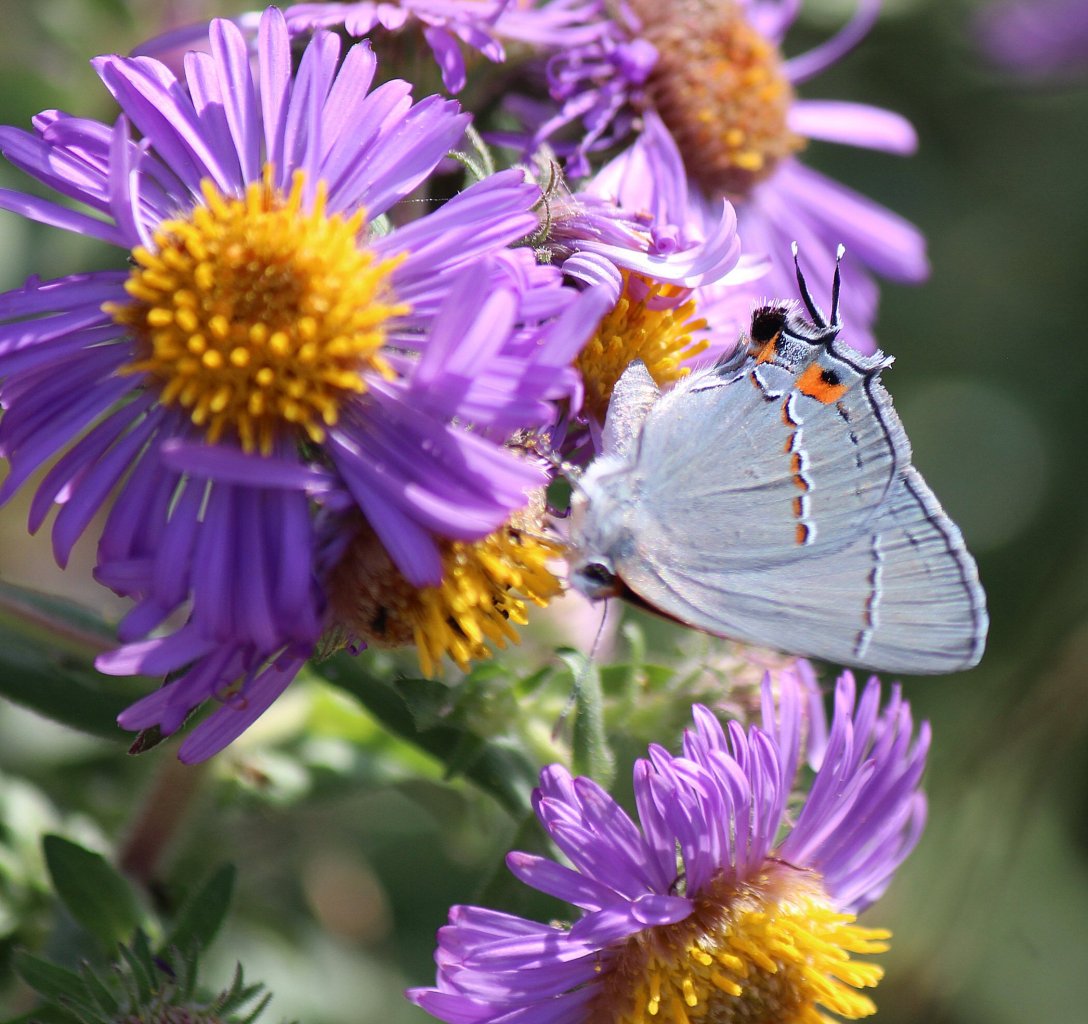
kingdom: Animalia
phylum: Arthropoda
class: Insecta
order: Lepidoptera
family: Lycaenidae
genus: Strymon
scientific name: Strymon melinus
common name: Gray Hairstreak
